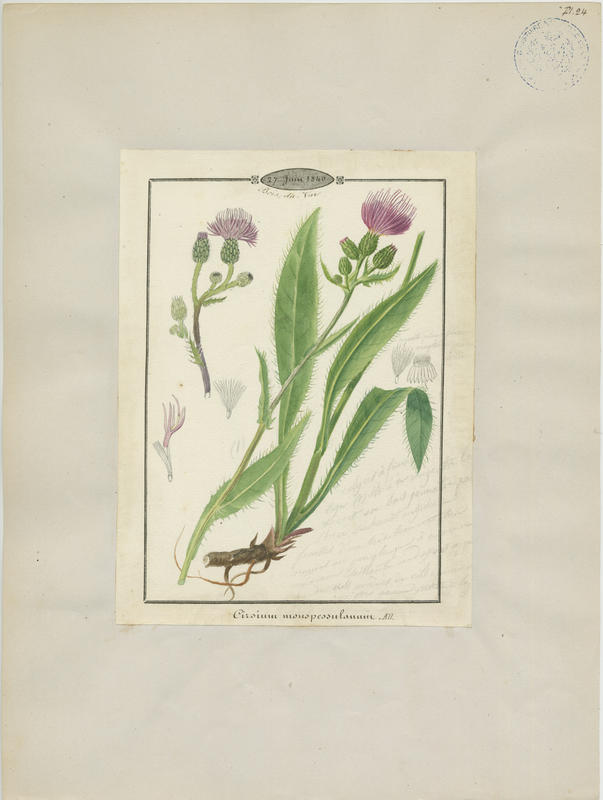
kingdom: Plantae
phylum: Tracheophyta
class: Magnoliopsida
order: Asterales
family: Asteraceae
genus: Cirsium
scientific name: Cirsium monspessulanum
